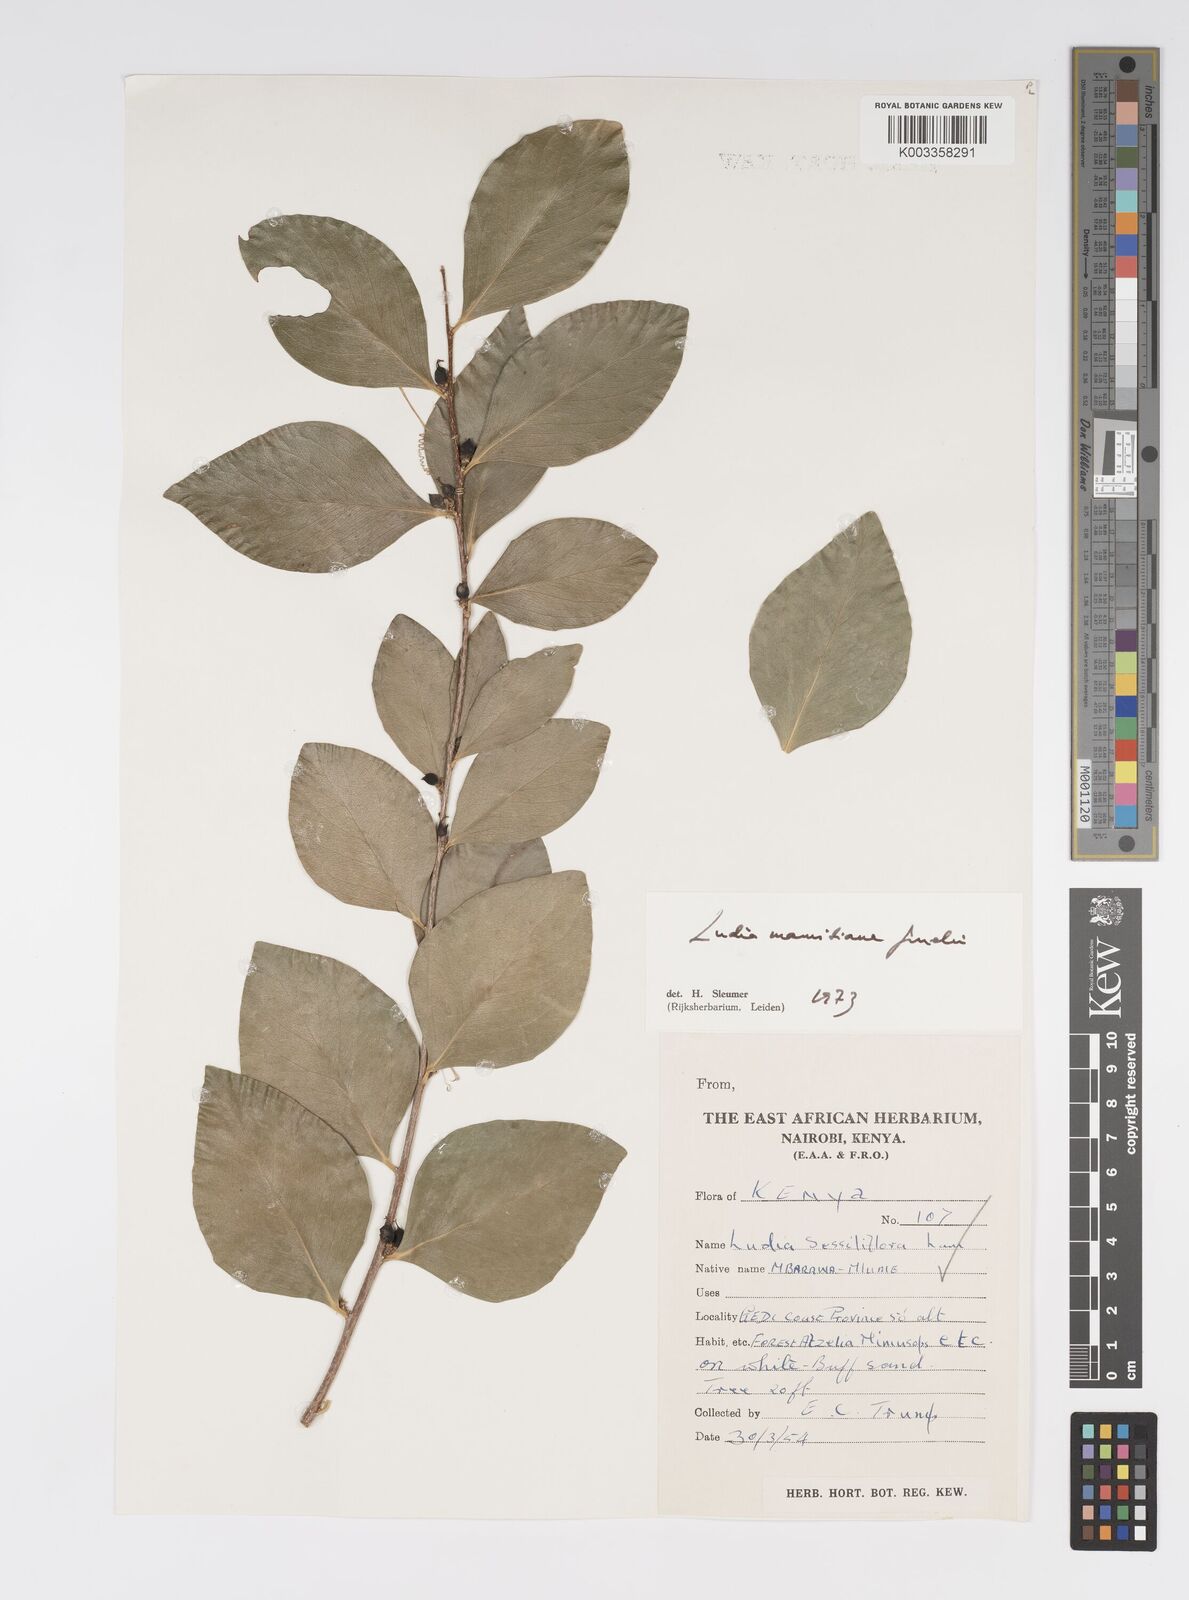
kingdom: Plantae
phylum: Tracheophyta
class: Magnoliopsida
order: Malpighiales
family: Salicaceae
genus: Ludia
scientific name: Ludia mauritiana
